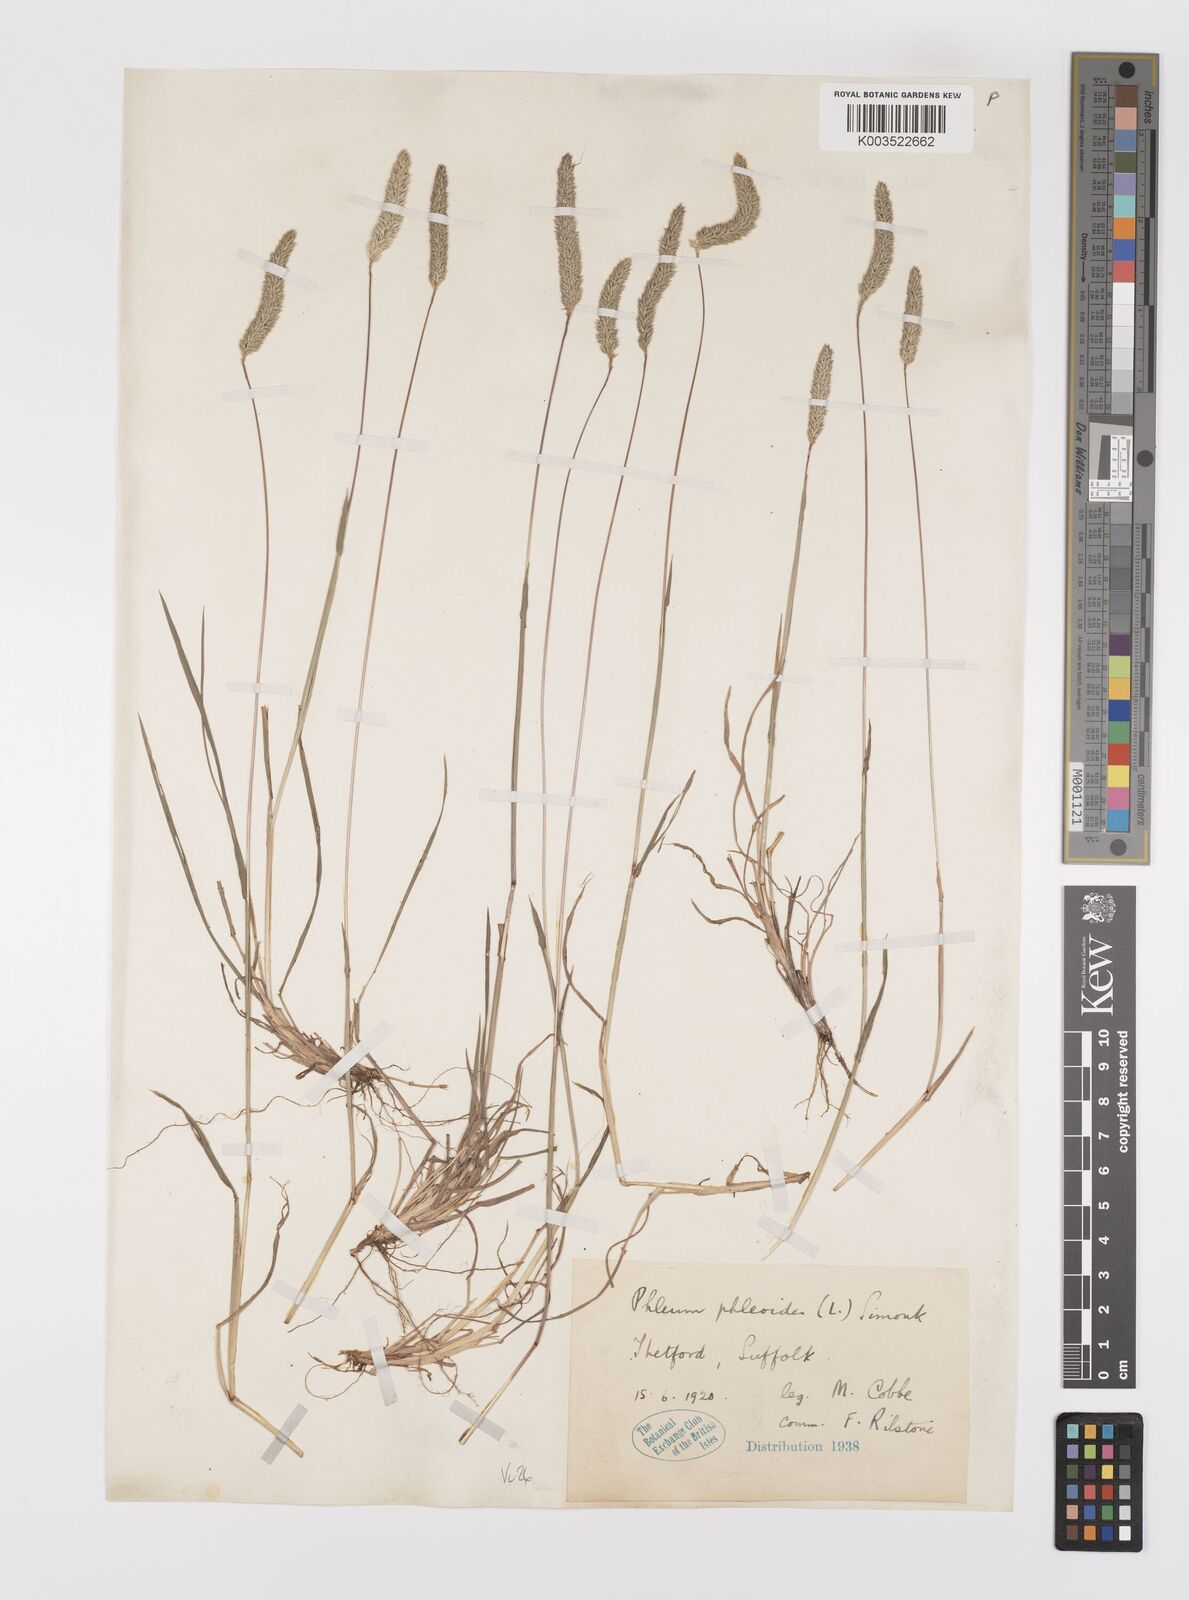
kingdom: Plantae
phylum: Tracheophyta
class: Liliopsida
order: Poales
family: Poaceae
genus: Phleum
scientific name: Phleum phleoides
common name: Purple-stem cat's-tail
